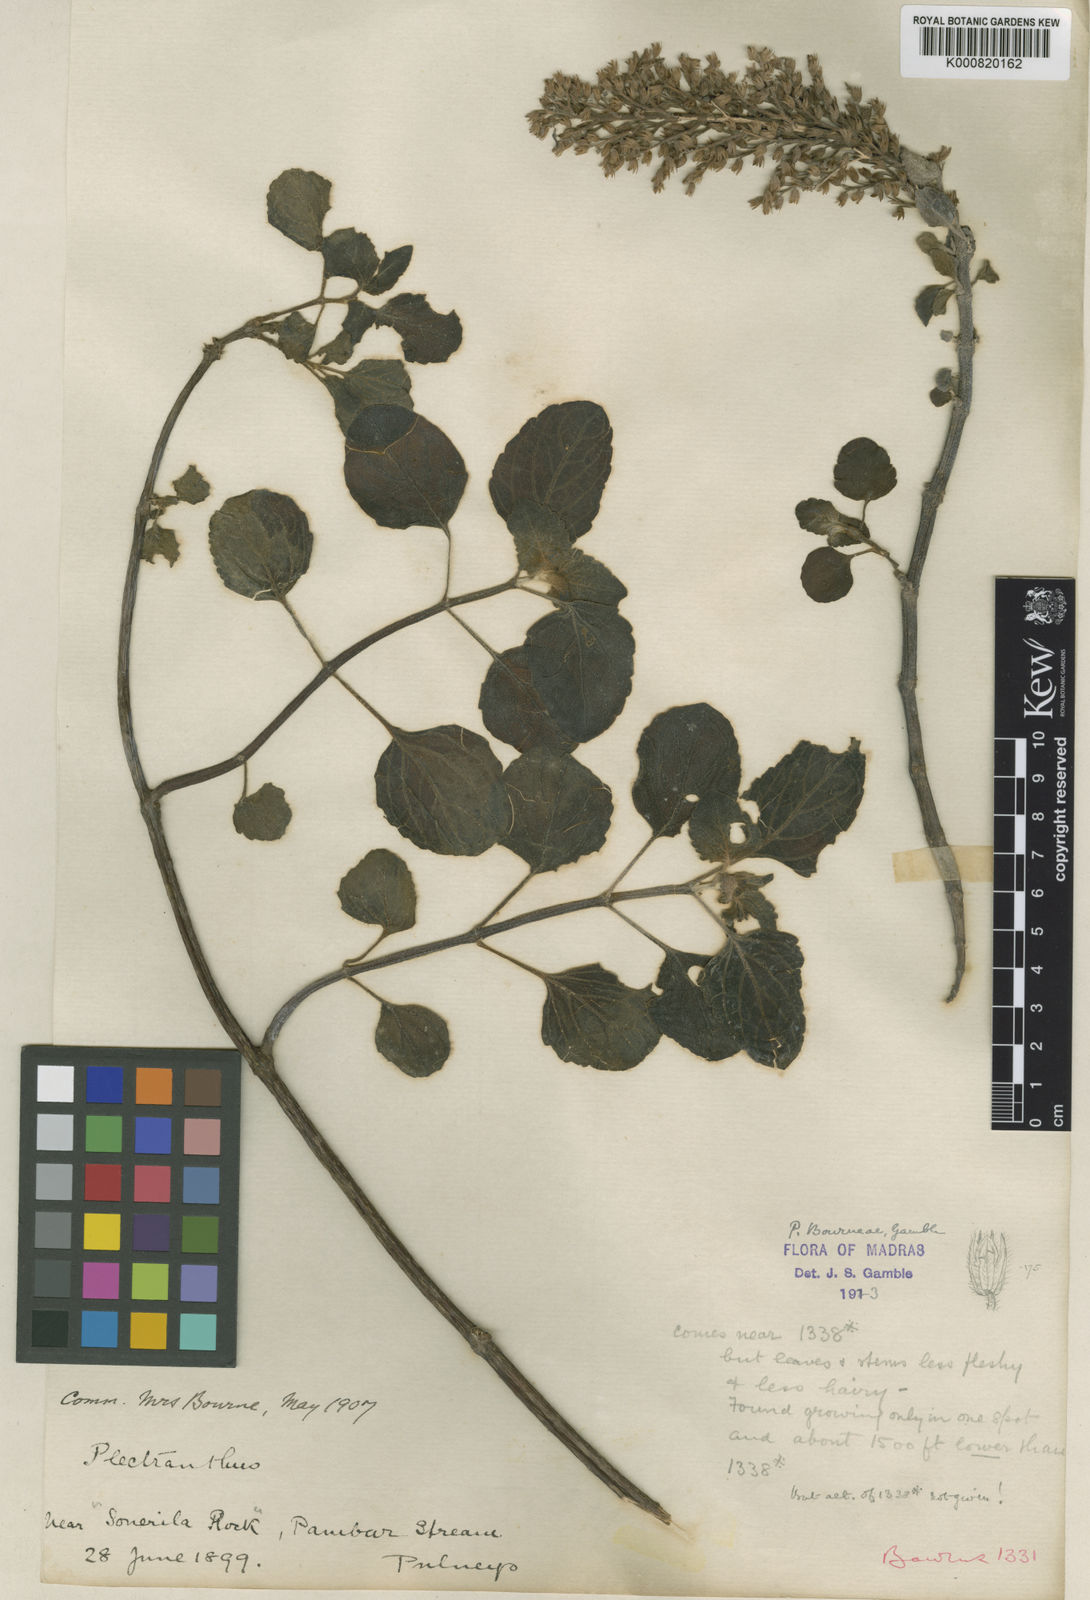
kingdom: Plantae
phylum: Tracheophyta
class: Magnoliopsida
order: Lamiales
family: Lamiaceae
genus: Coleus
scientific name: Coleus bourneae
